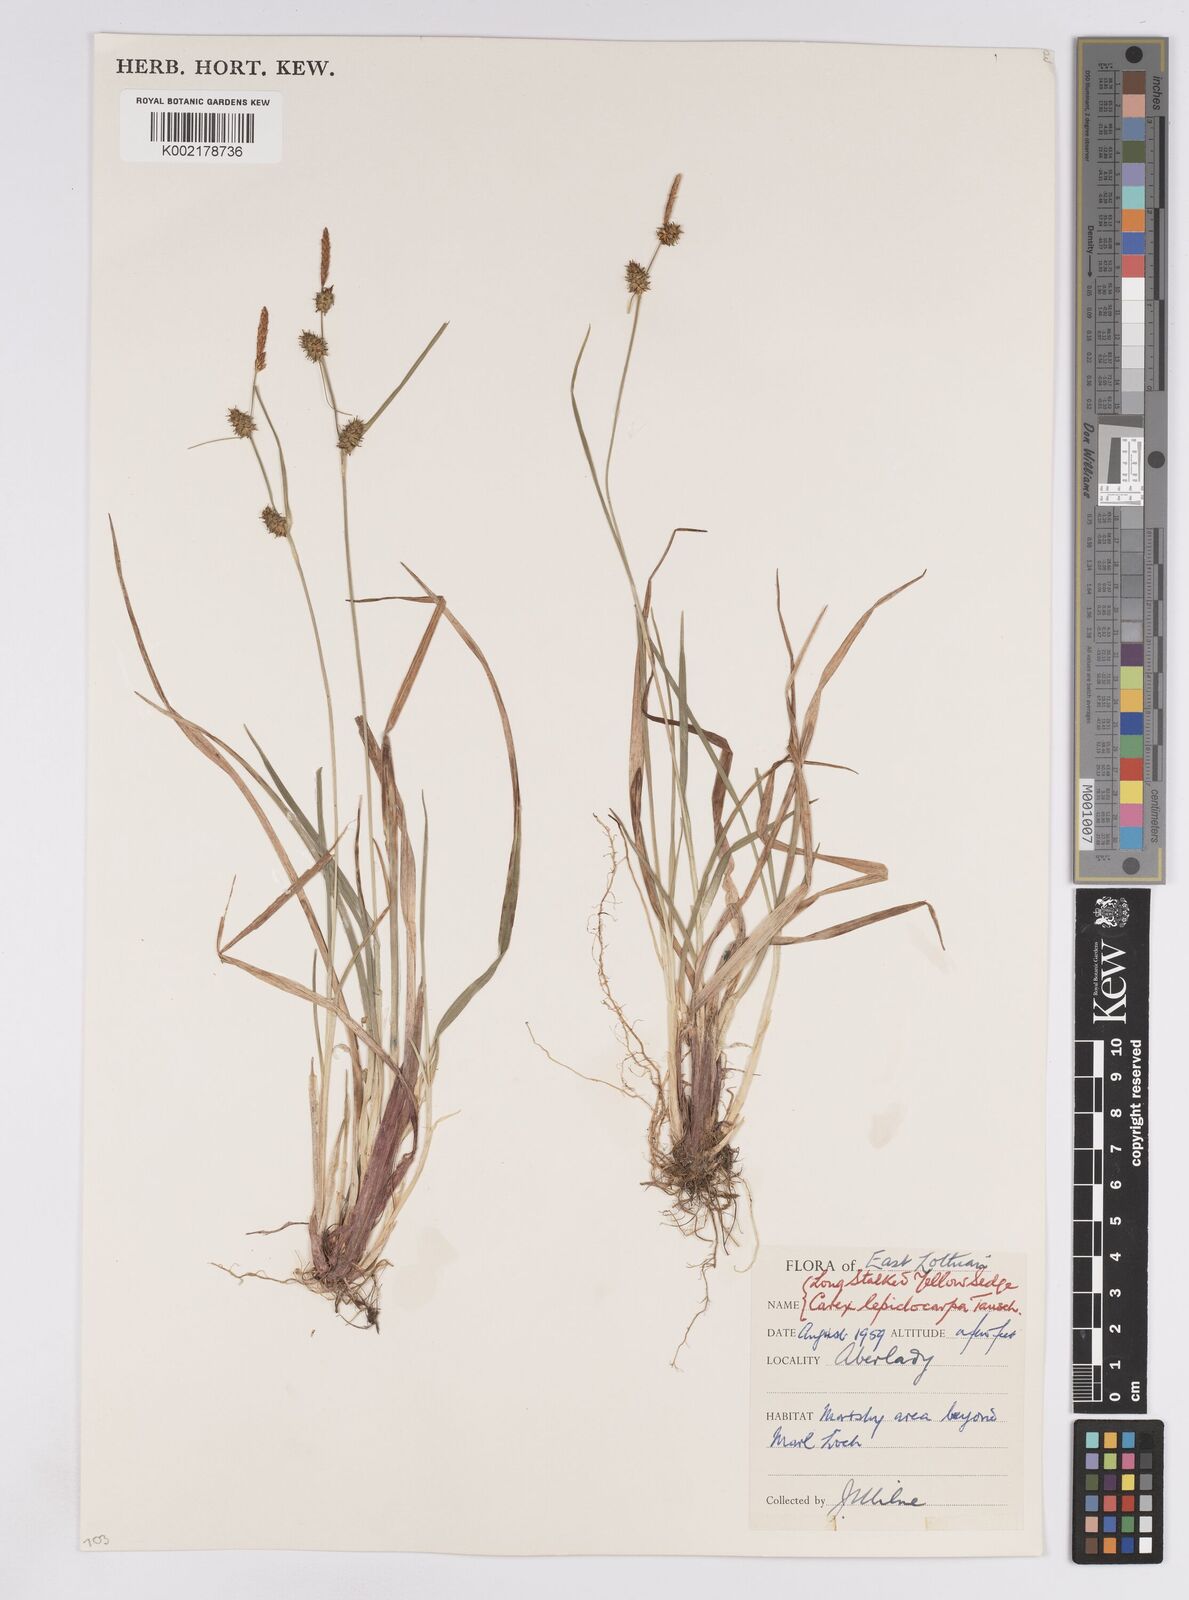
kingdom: Plantae
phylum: Tracheophyta
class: Liliopsida
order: Poales
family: Cyperaceae
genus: Carex
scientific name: Carex lepidocarpa
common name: Long-stalked yellow-sedge
